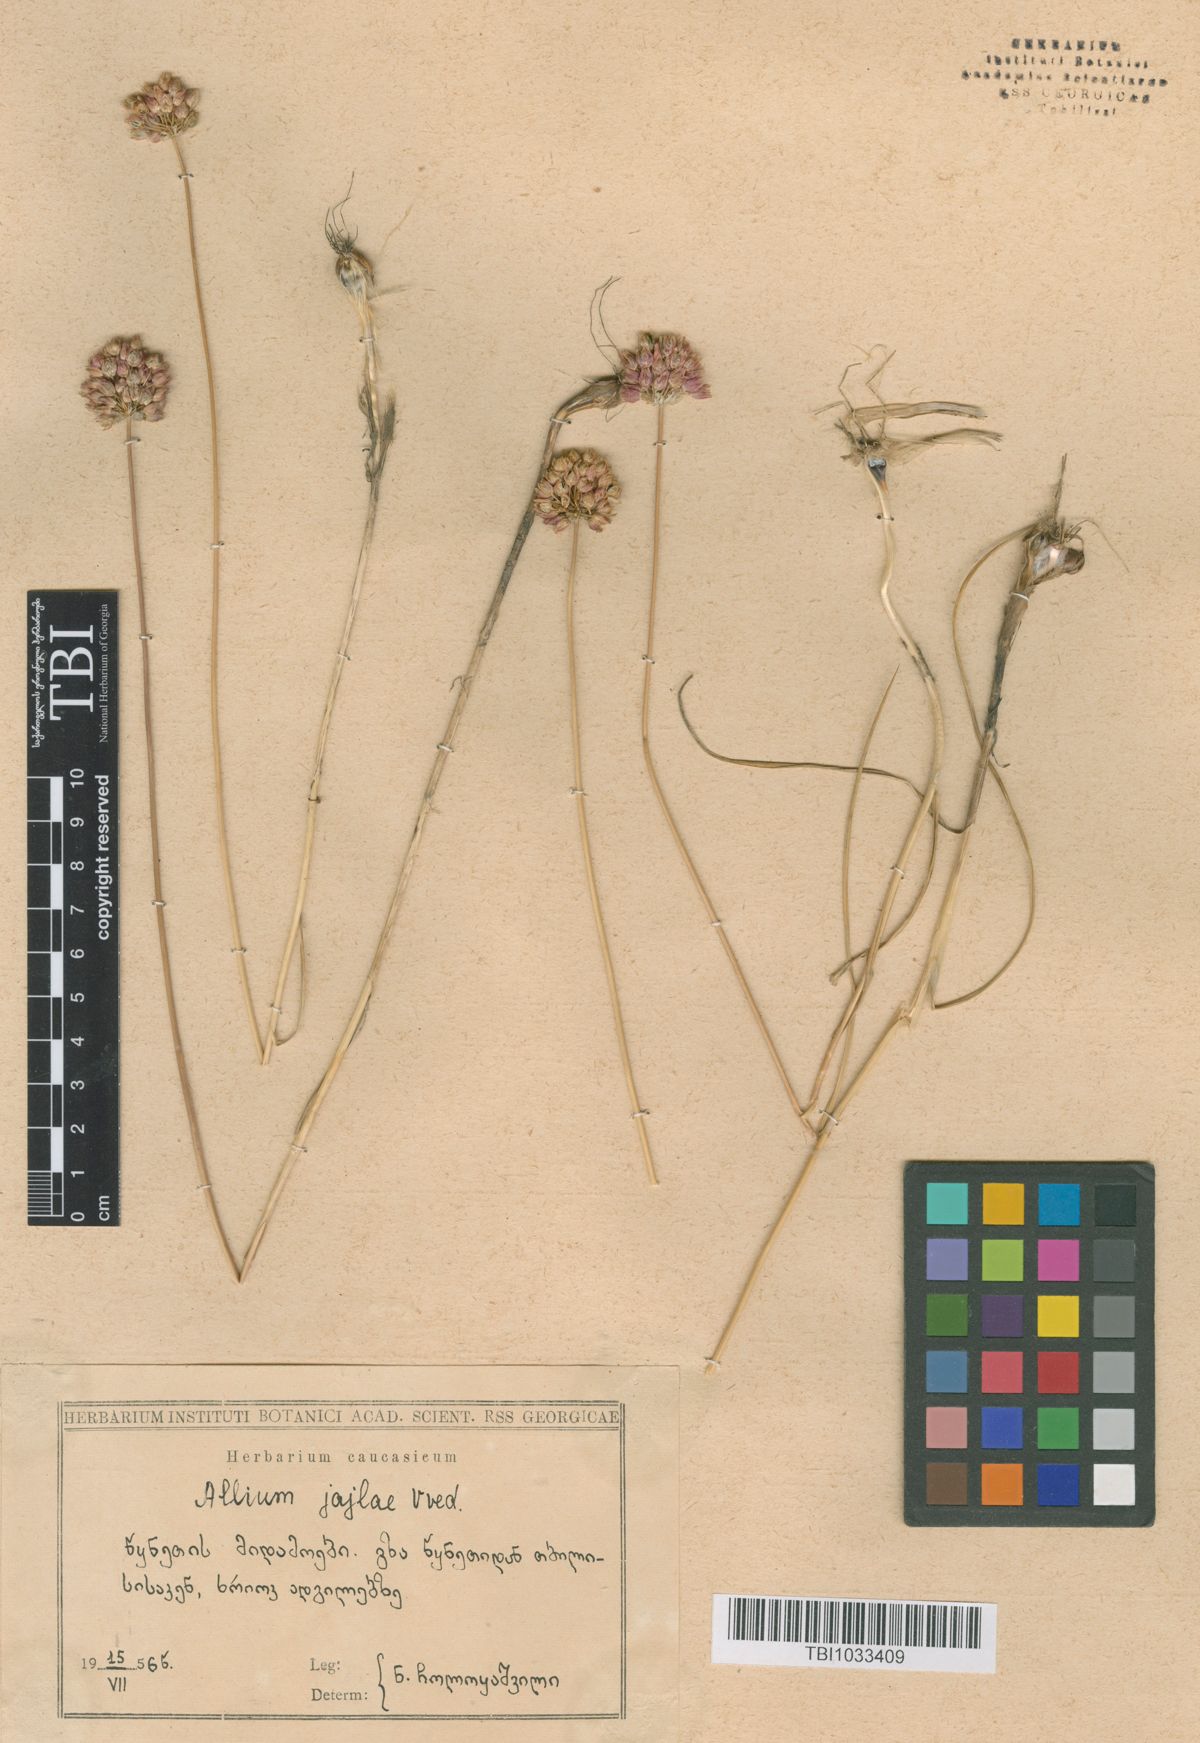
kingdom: Plantae
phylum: Tracheophyta
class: Liliopsida
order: Asparagales
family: Amaryllidaceae
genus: Allium
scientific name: Allium rotundum
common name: Sand leek
